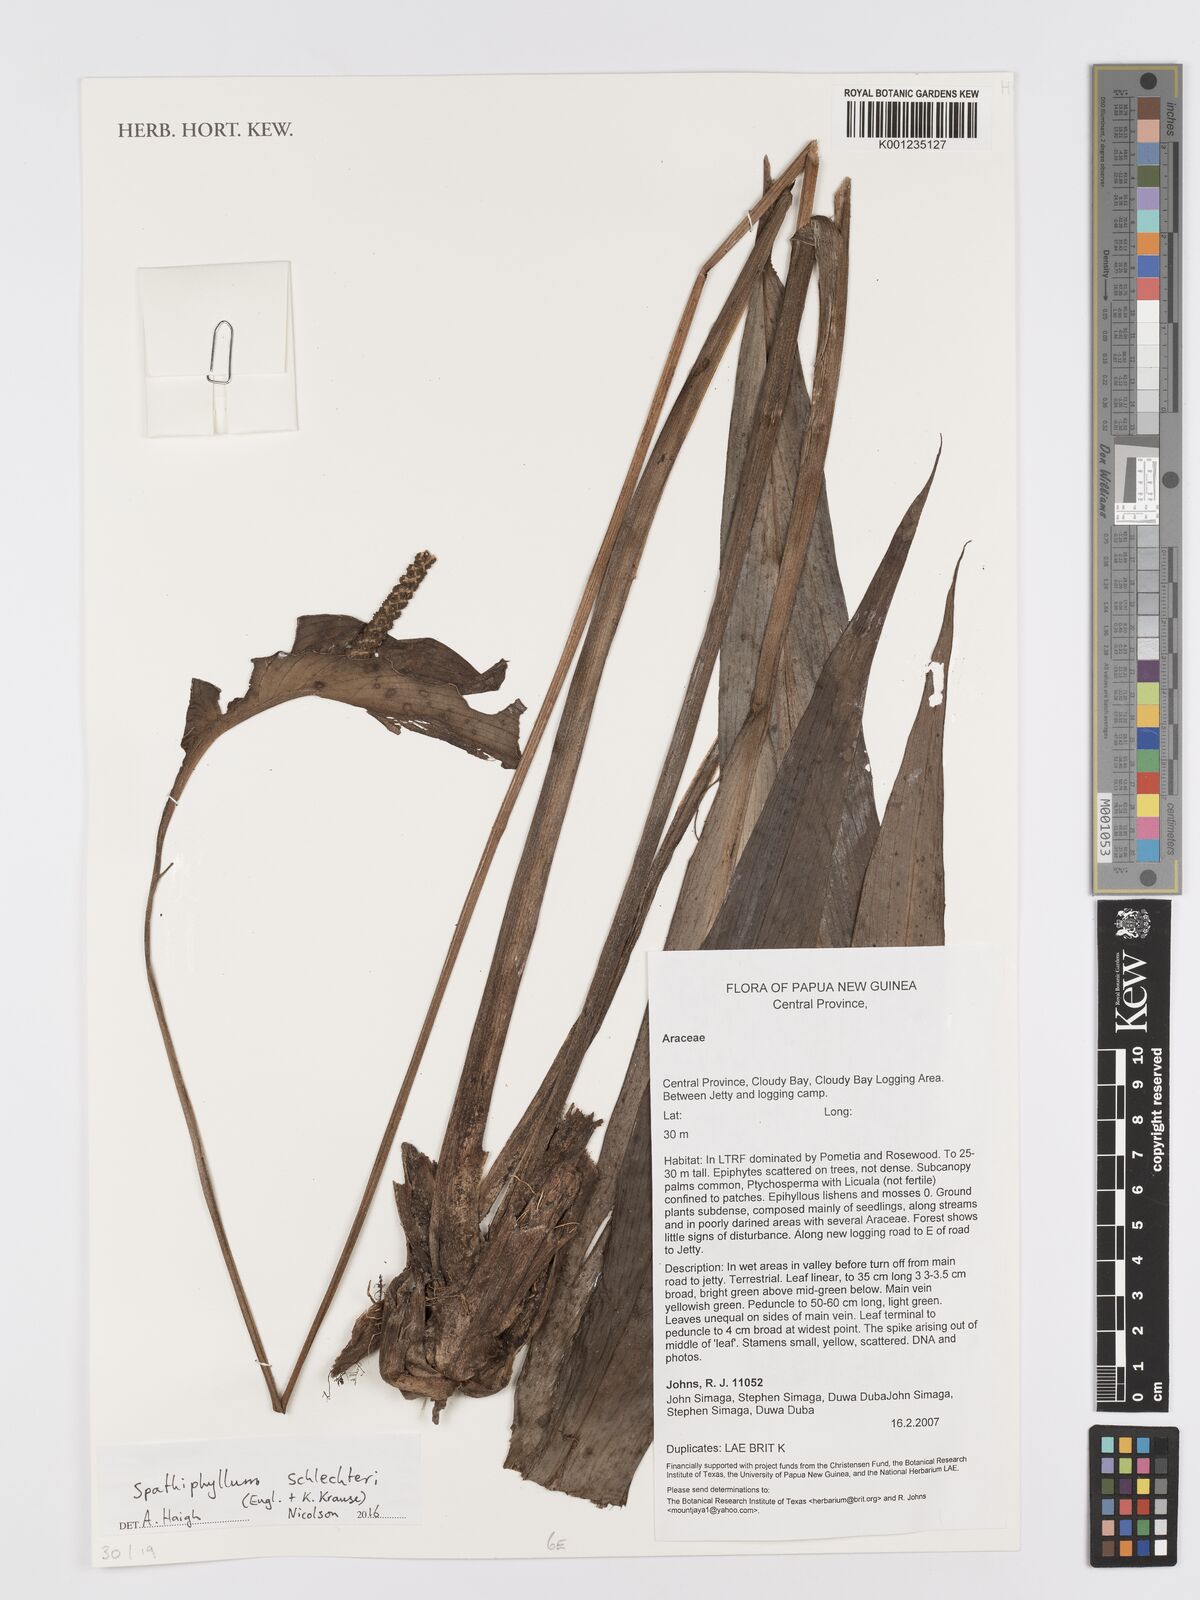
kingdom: Plantae
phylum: Tracheophyta
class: Liliopsida
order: Alismatales
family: Araceae
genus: Spathiphyllum
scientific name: Spathiphyllum schlechteri
